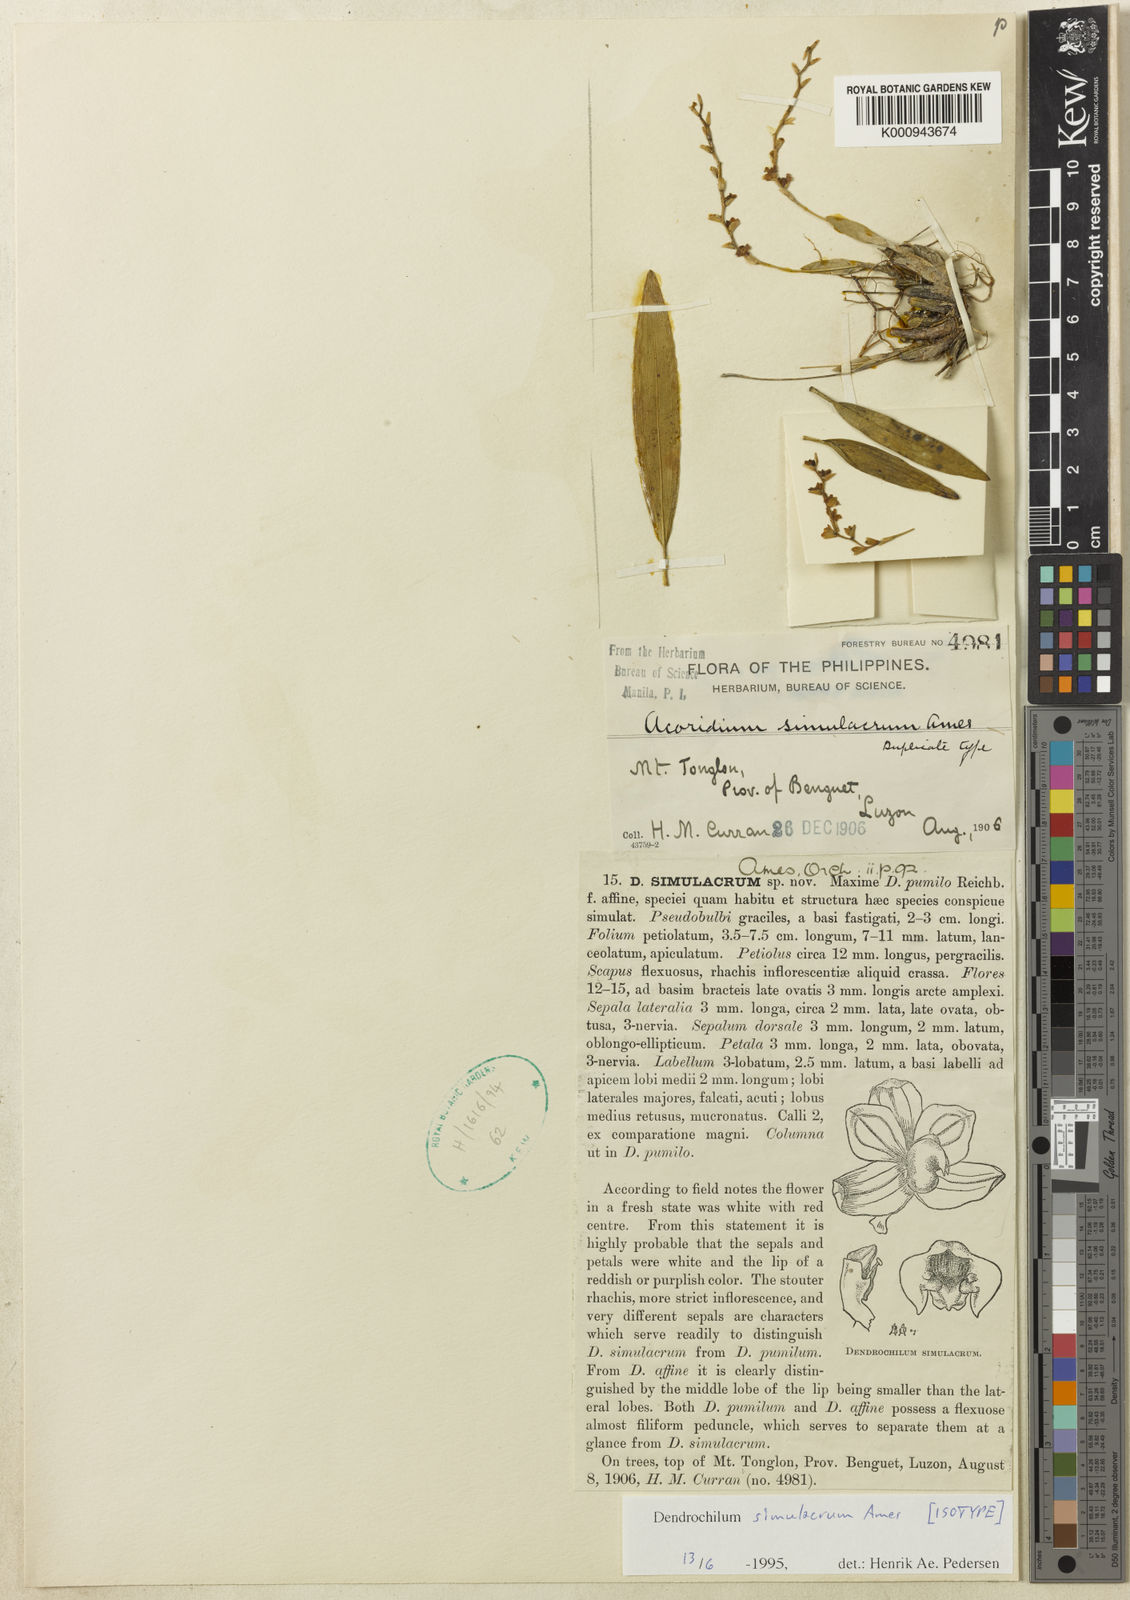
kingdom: Plantae
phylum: Tracheophyta
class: Liliopsida
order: Asparagales
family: Orchidaceae
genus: Coelogyne
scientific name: Coelogyne simulacra
